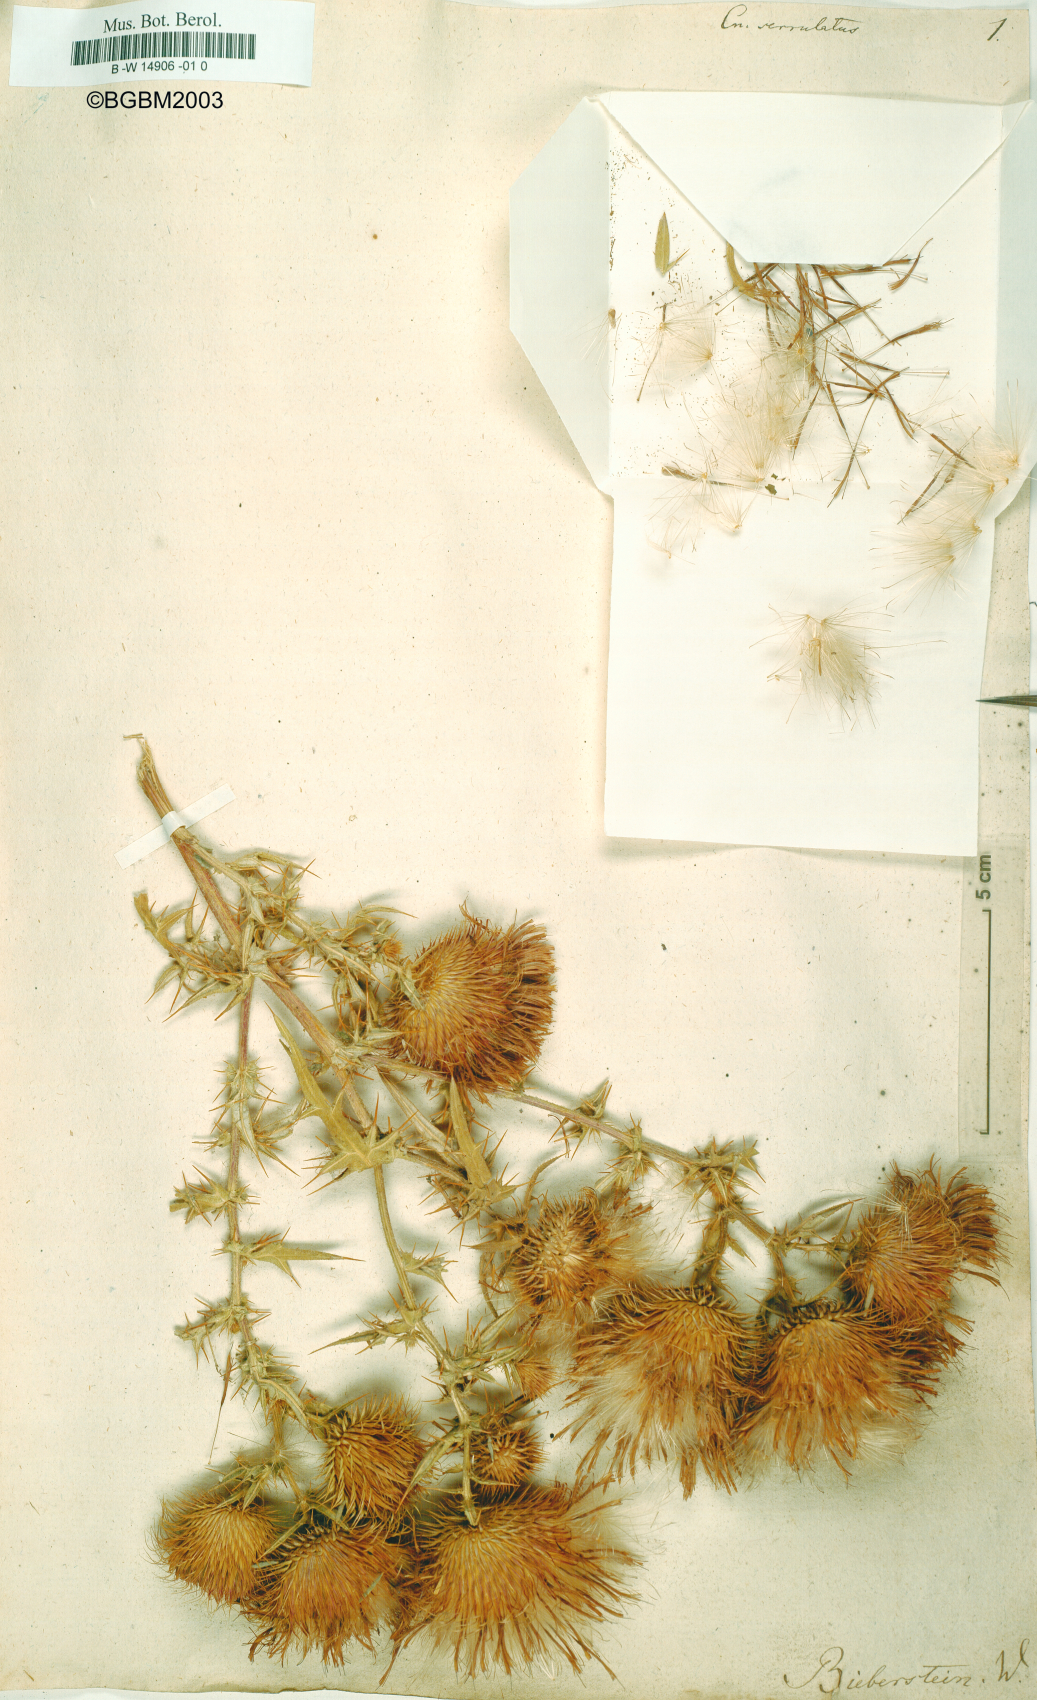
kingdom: Plantae
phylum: Tracheophyta
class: Magnoliopsida
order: Asterales
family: Asteraceae
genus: Lophiolepis
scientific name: Lophiolepis serrulata
